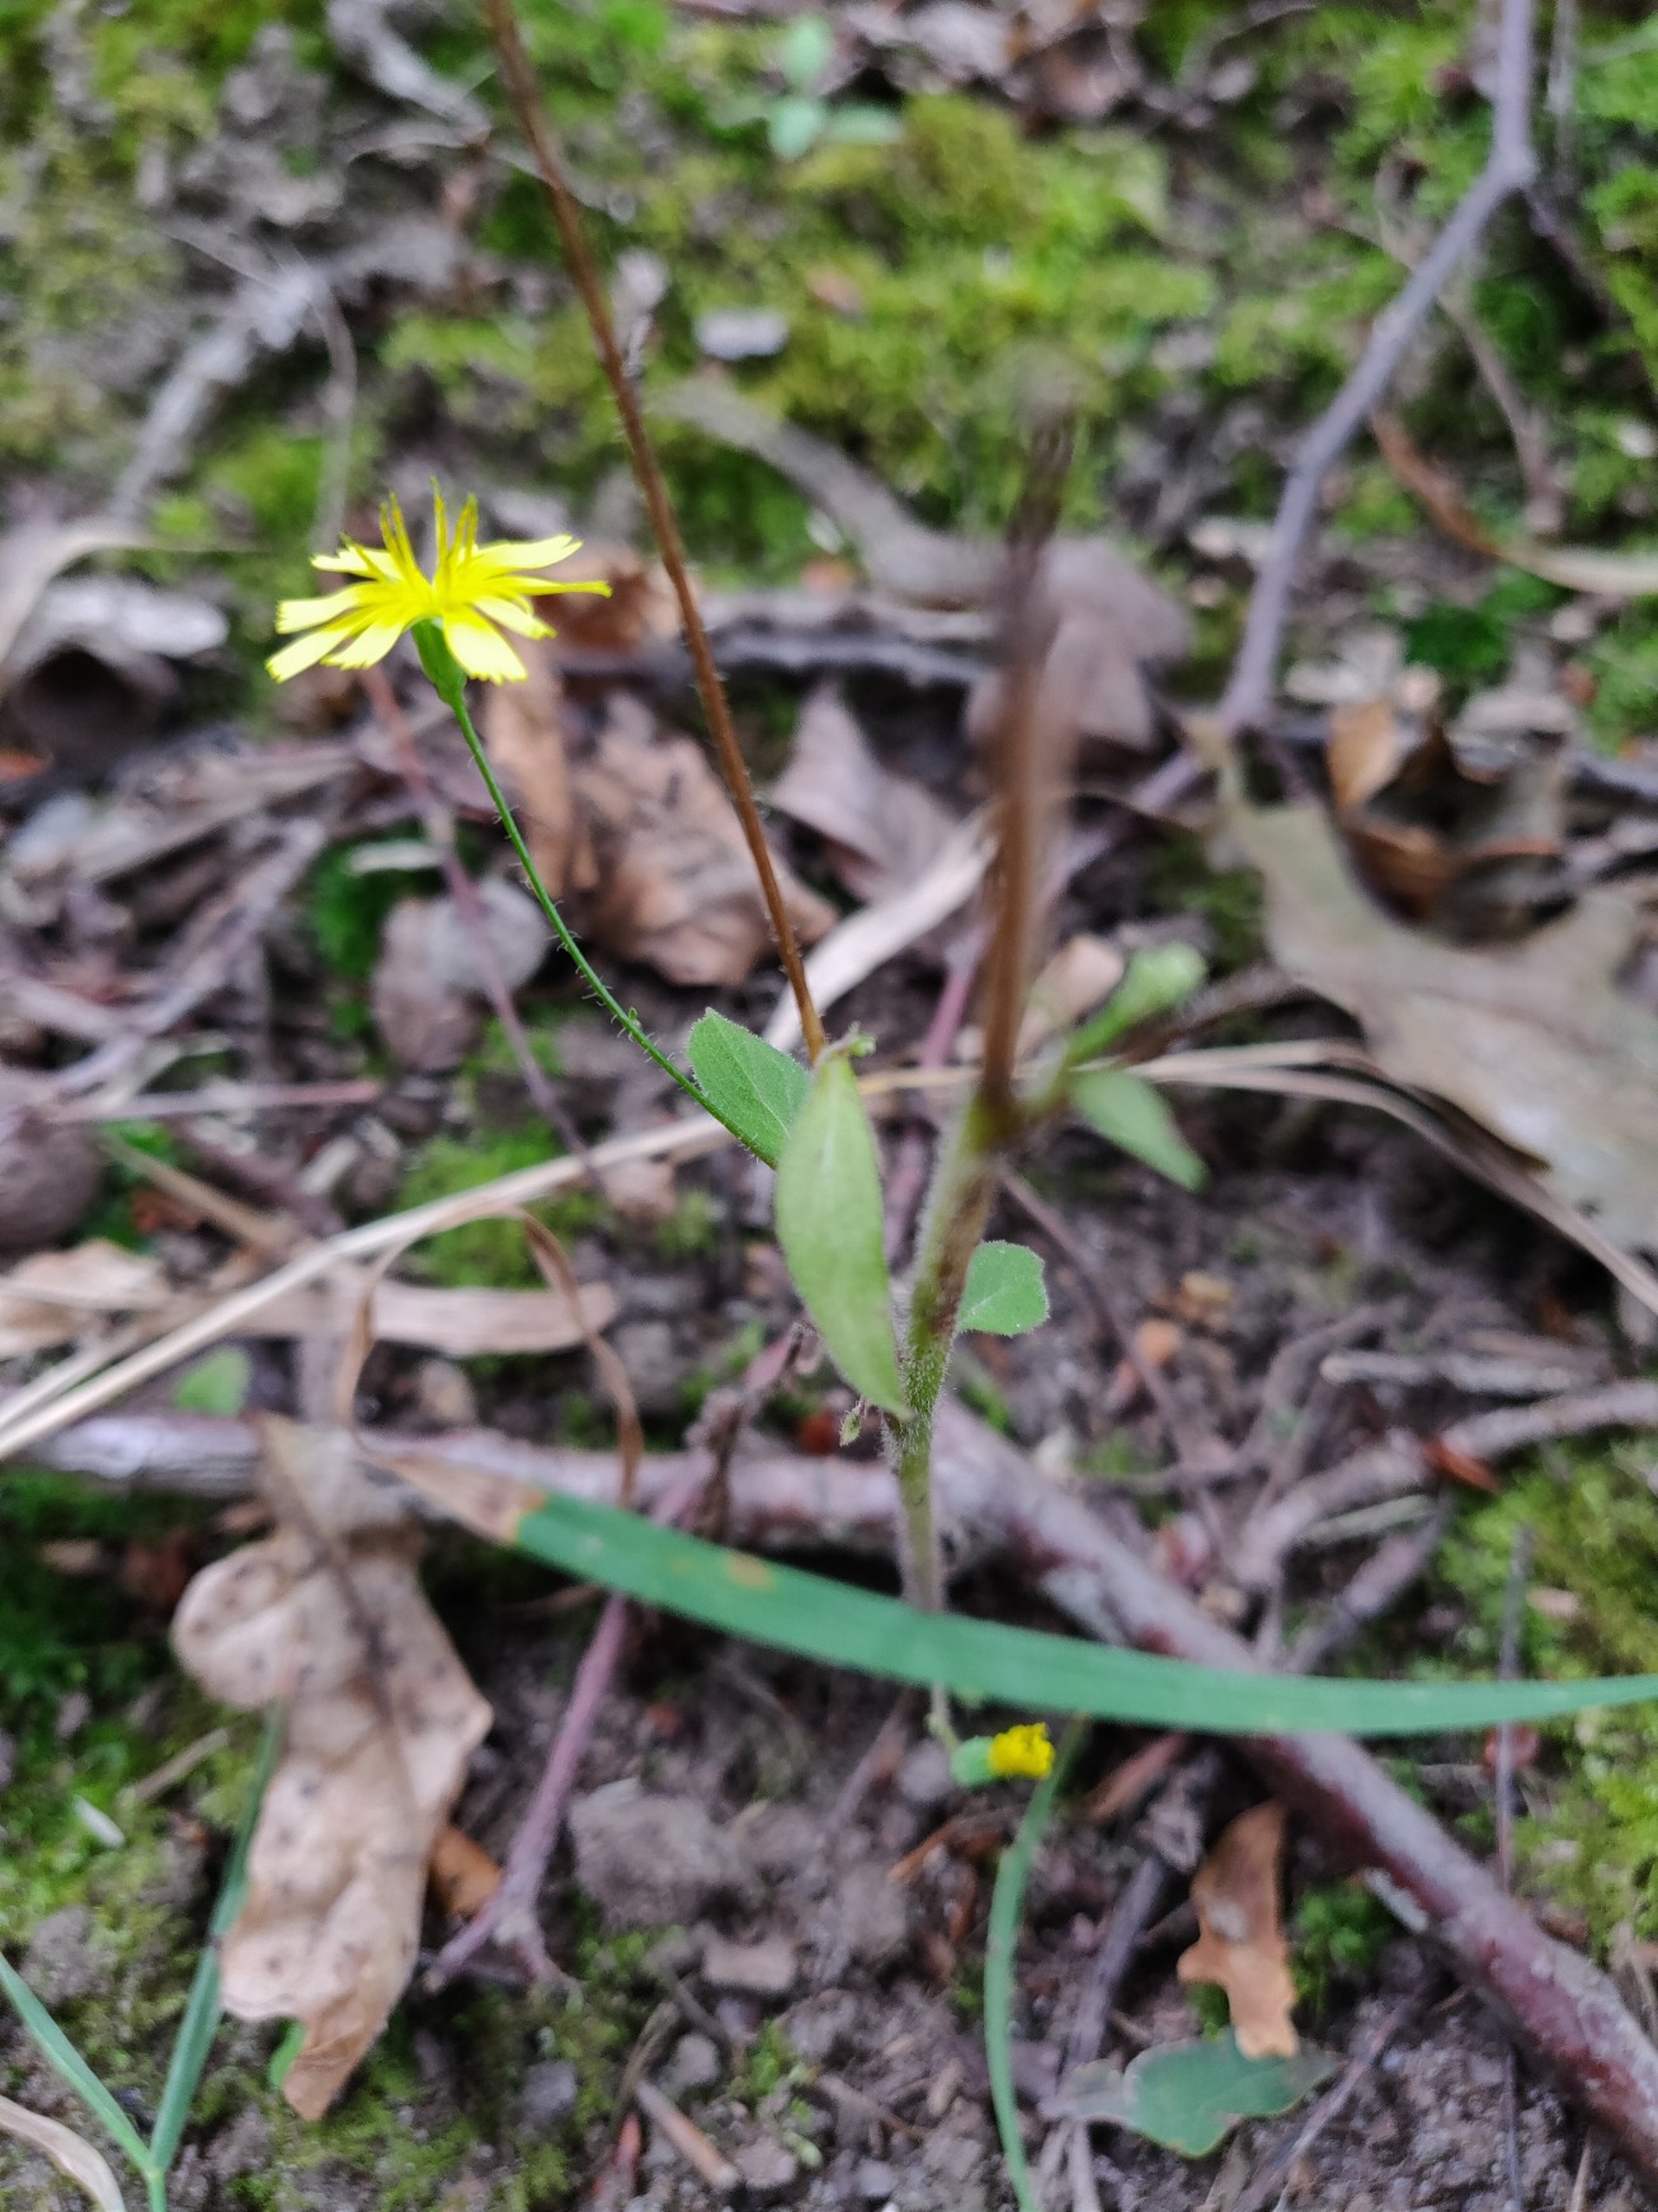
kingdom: Plantae
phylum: Tracheophyta
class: Magnoliopsida
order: Asterales
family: Asteraceae
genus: Lapsana
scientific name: Lapsana communis
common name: Haremad
